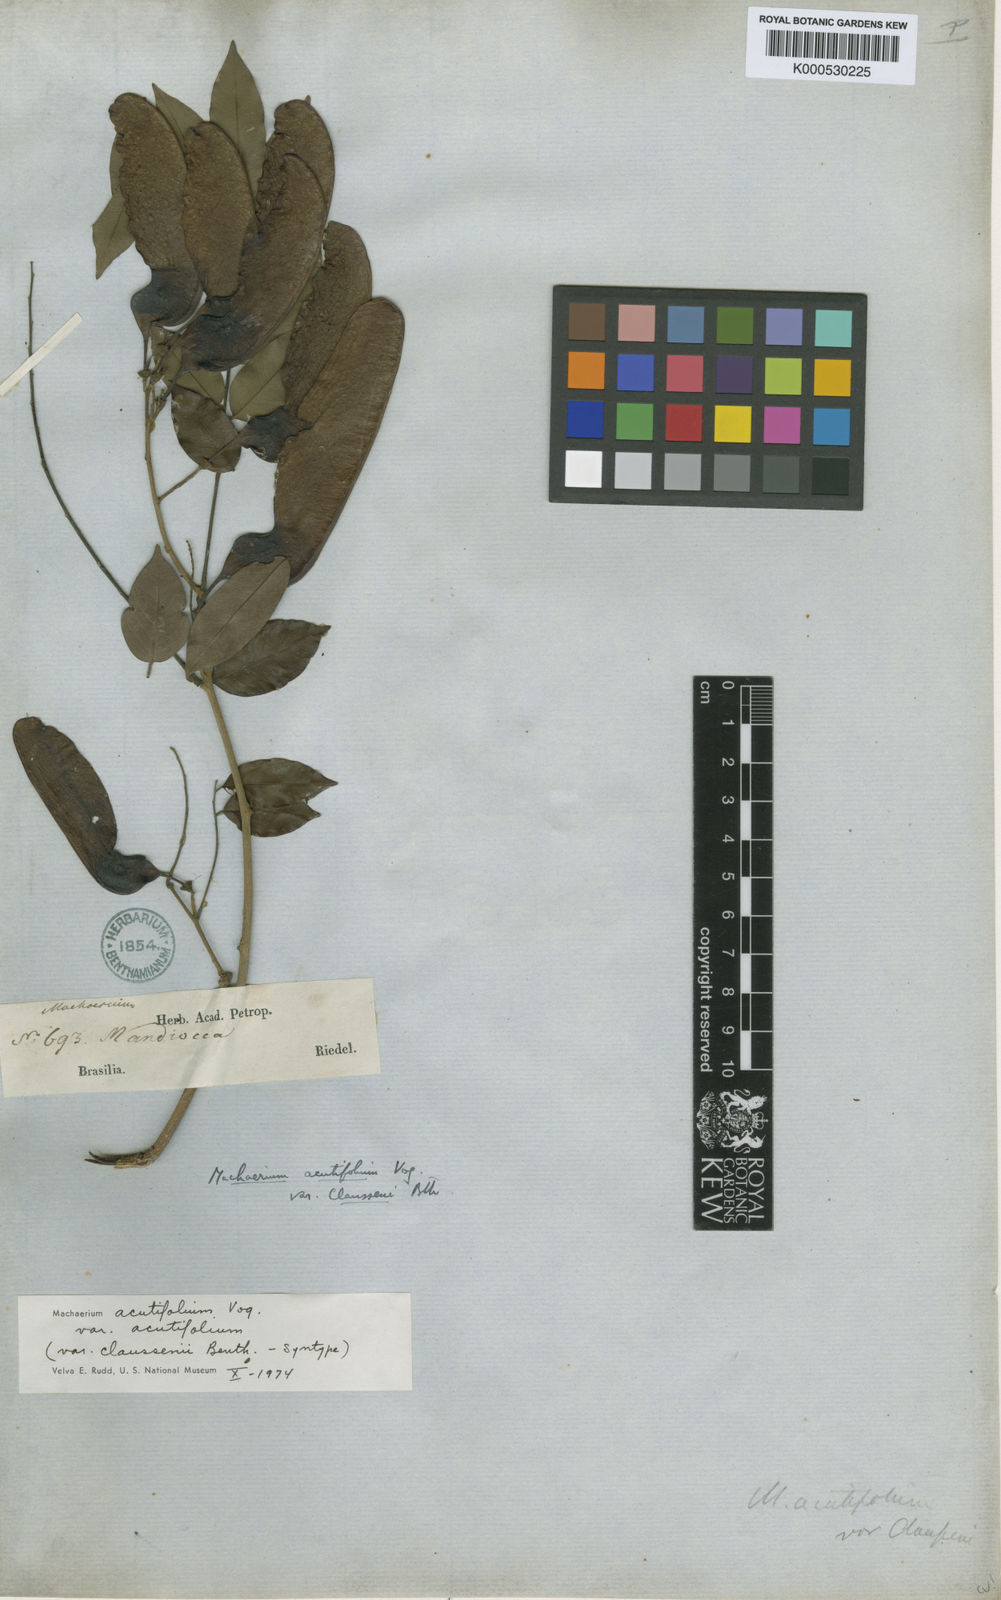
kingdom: Plantae
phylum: Tracheophyta
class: Magnoliopsida
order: Fabales
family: Fabaceae
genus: Machaerium
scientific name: Machaerium acutifolium
